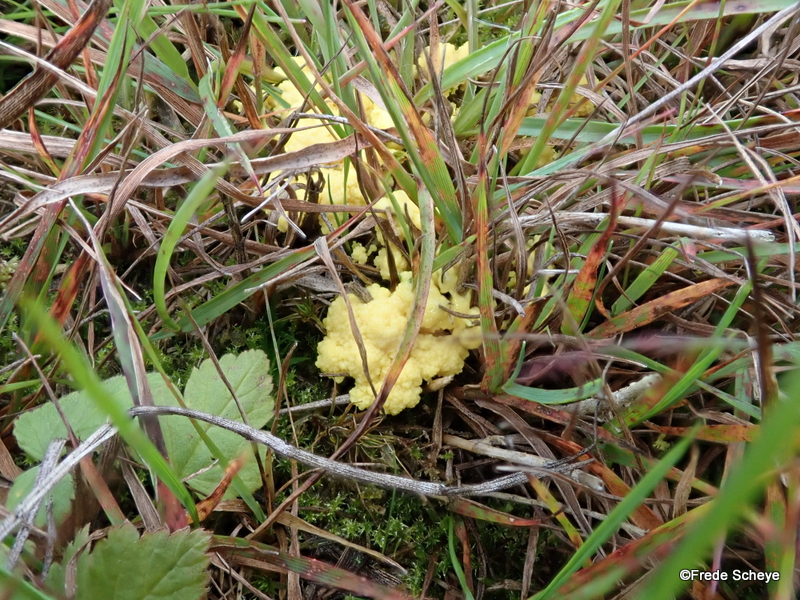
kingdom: Protozoa
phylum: Mycetozoa
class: Myxomycetes
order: Physarales
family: Physaraceae
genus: Fuligo
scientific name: Fuligo septica
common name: gul troldsmør
